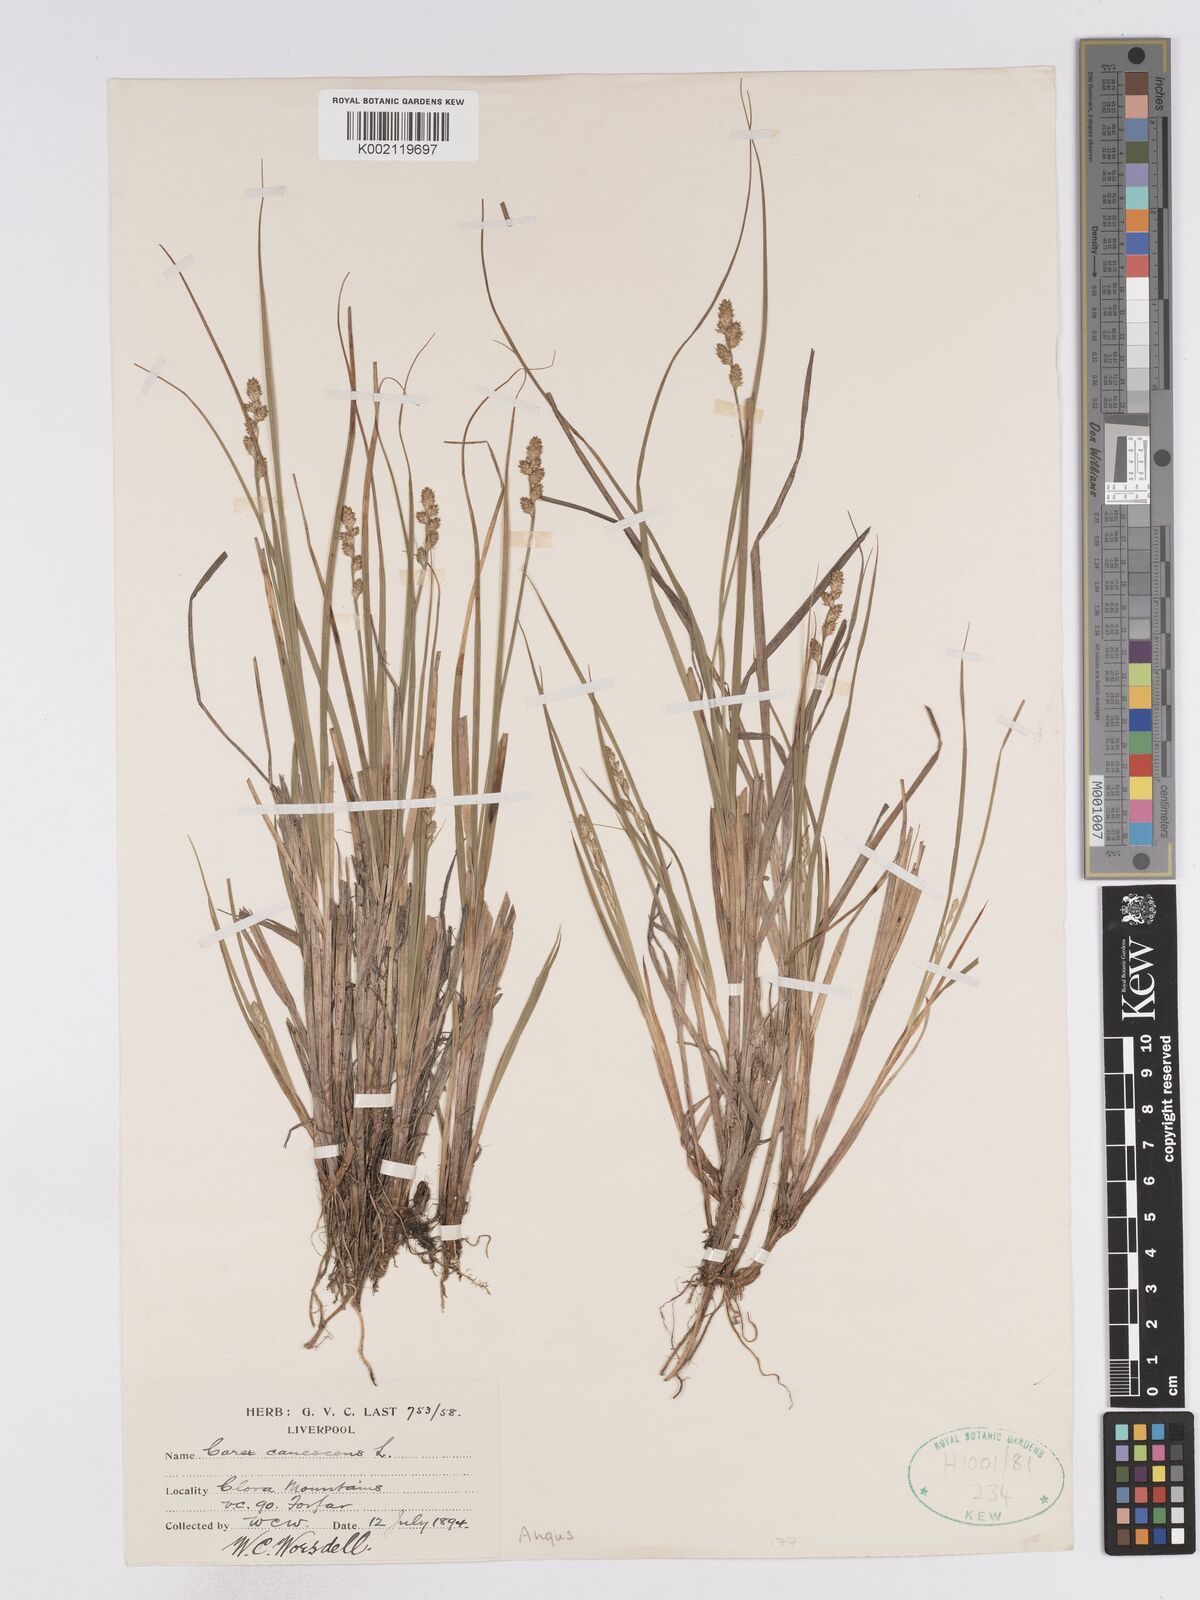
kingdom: Plantae
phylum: Tracheophyta
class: Liliopsida
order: Poales
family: Cyperaceae
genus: Carex
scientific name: Carex curta
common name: White sedge
